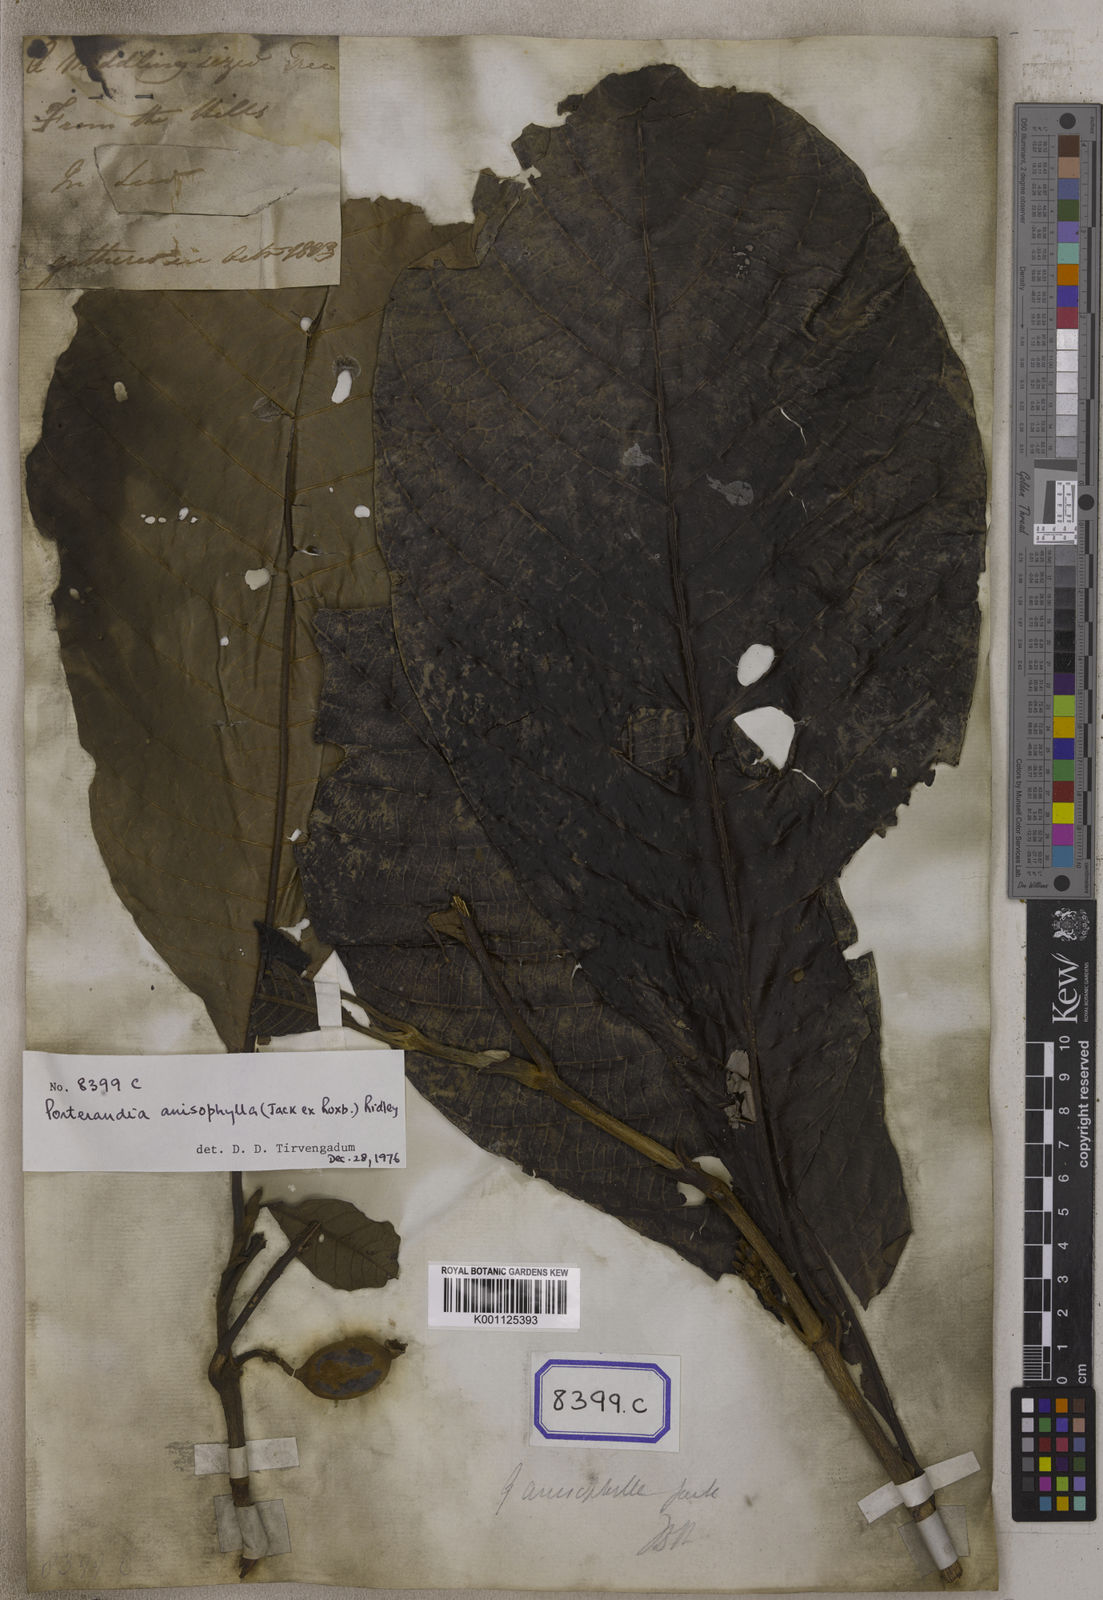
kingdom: Plantae
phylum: Tracheophyta
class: Magnoliopsida
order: Gentianales
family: Rubiaceae
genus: Gardenia
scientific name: Gardenia
